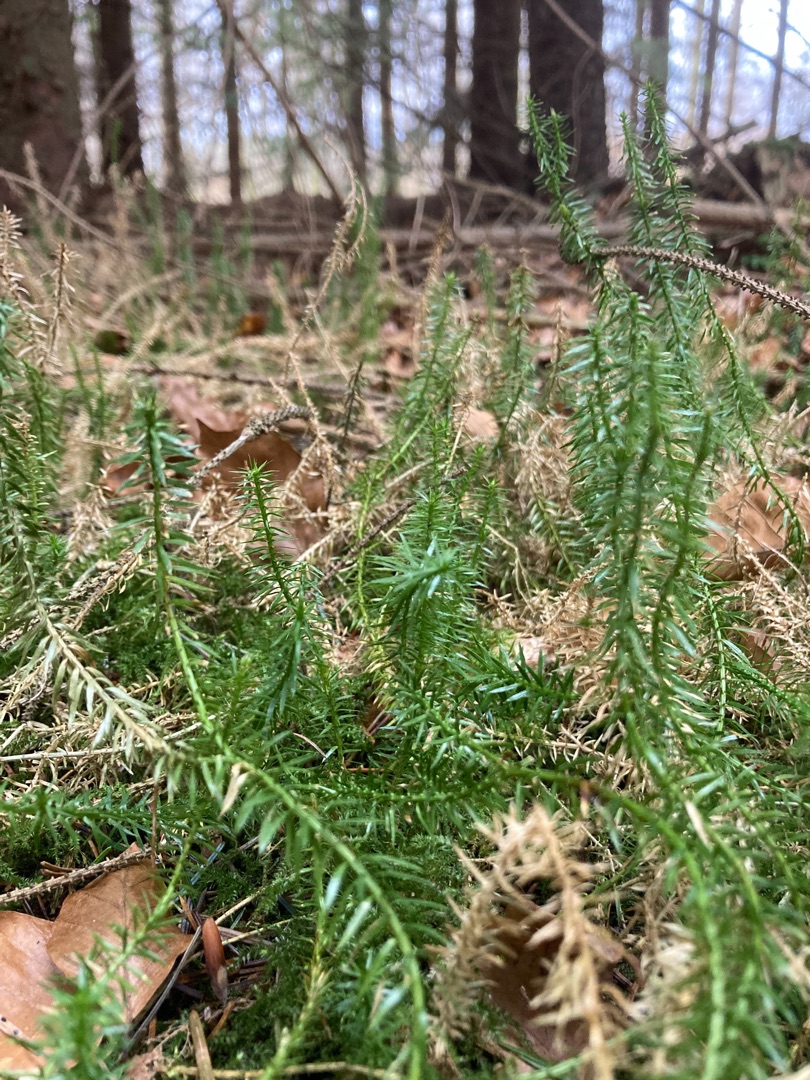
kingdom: Plantae
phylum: Tracheophyta
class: Lycopodiopsida
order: Lycopodiales
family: Lycopodiaceae
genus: Spinulum
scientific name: Spinulum annotinum
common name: Femradet ulvefod
